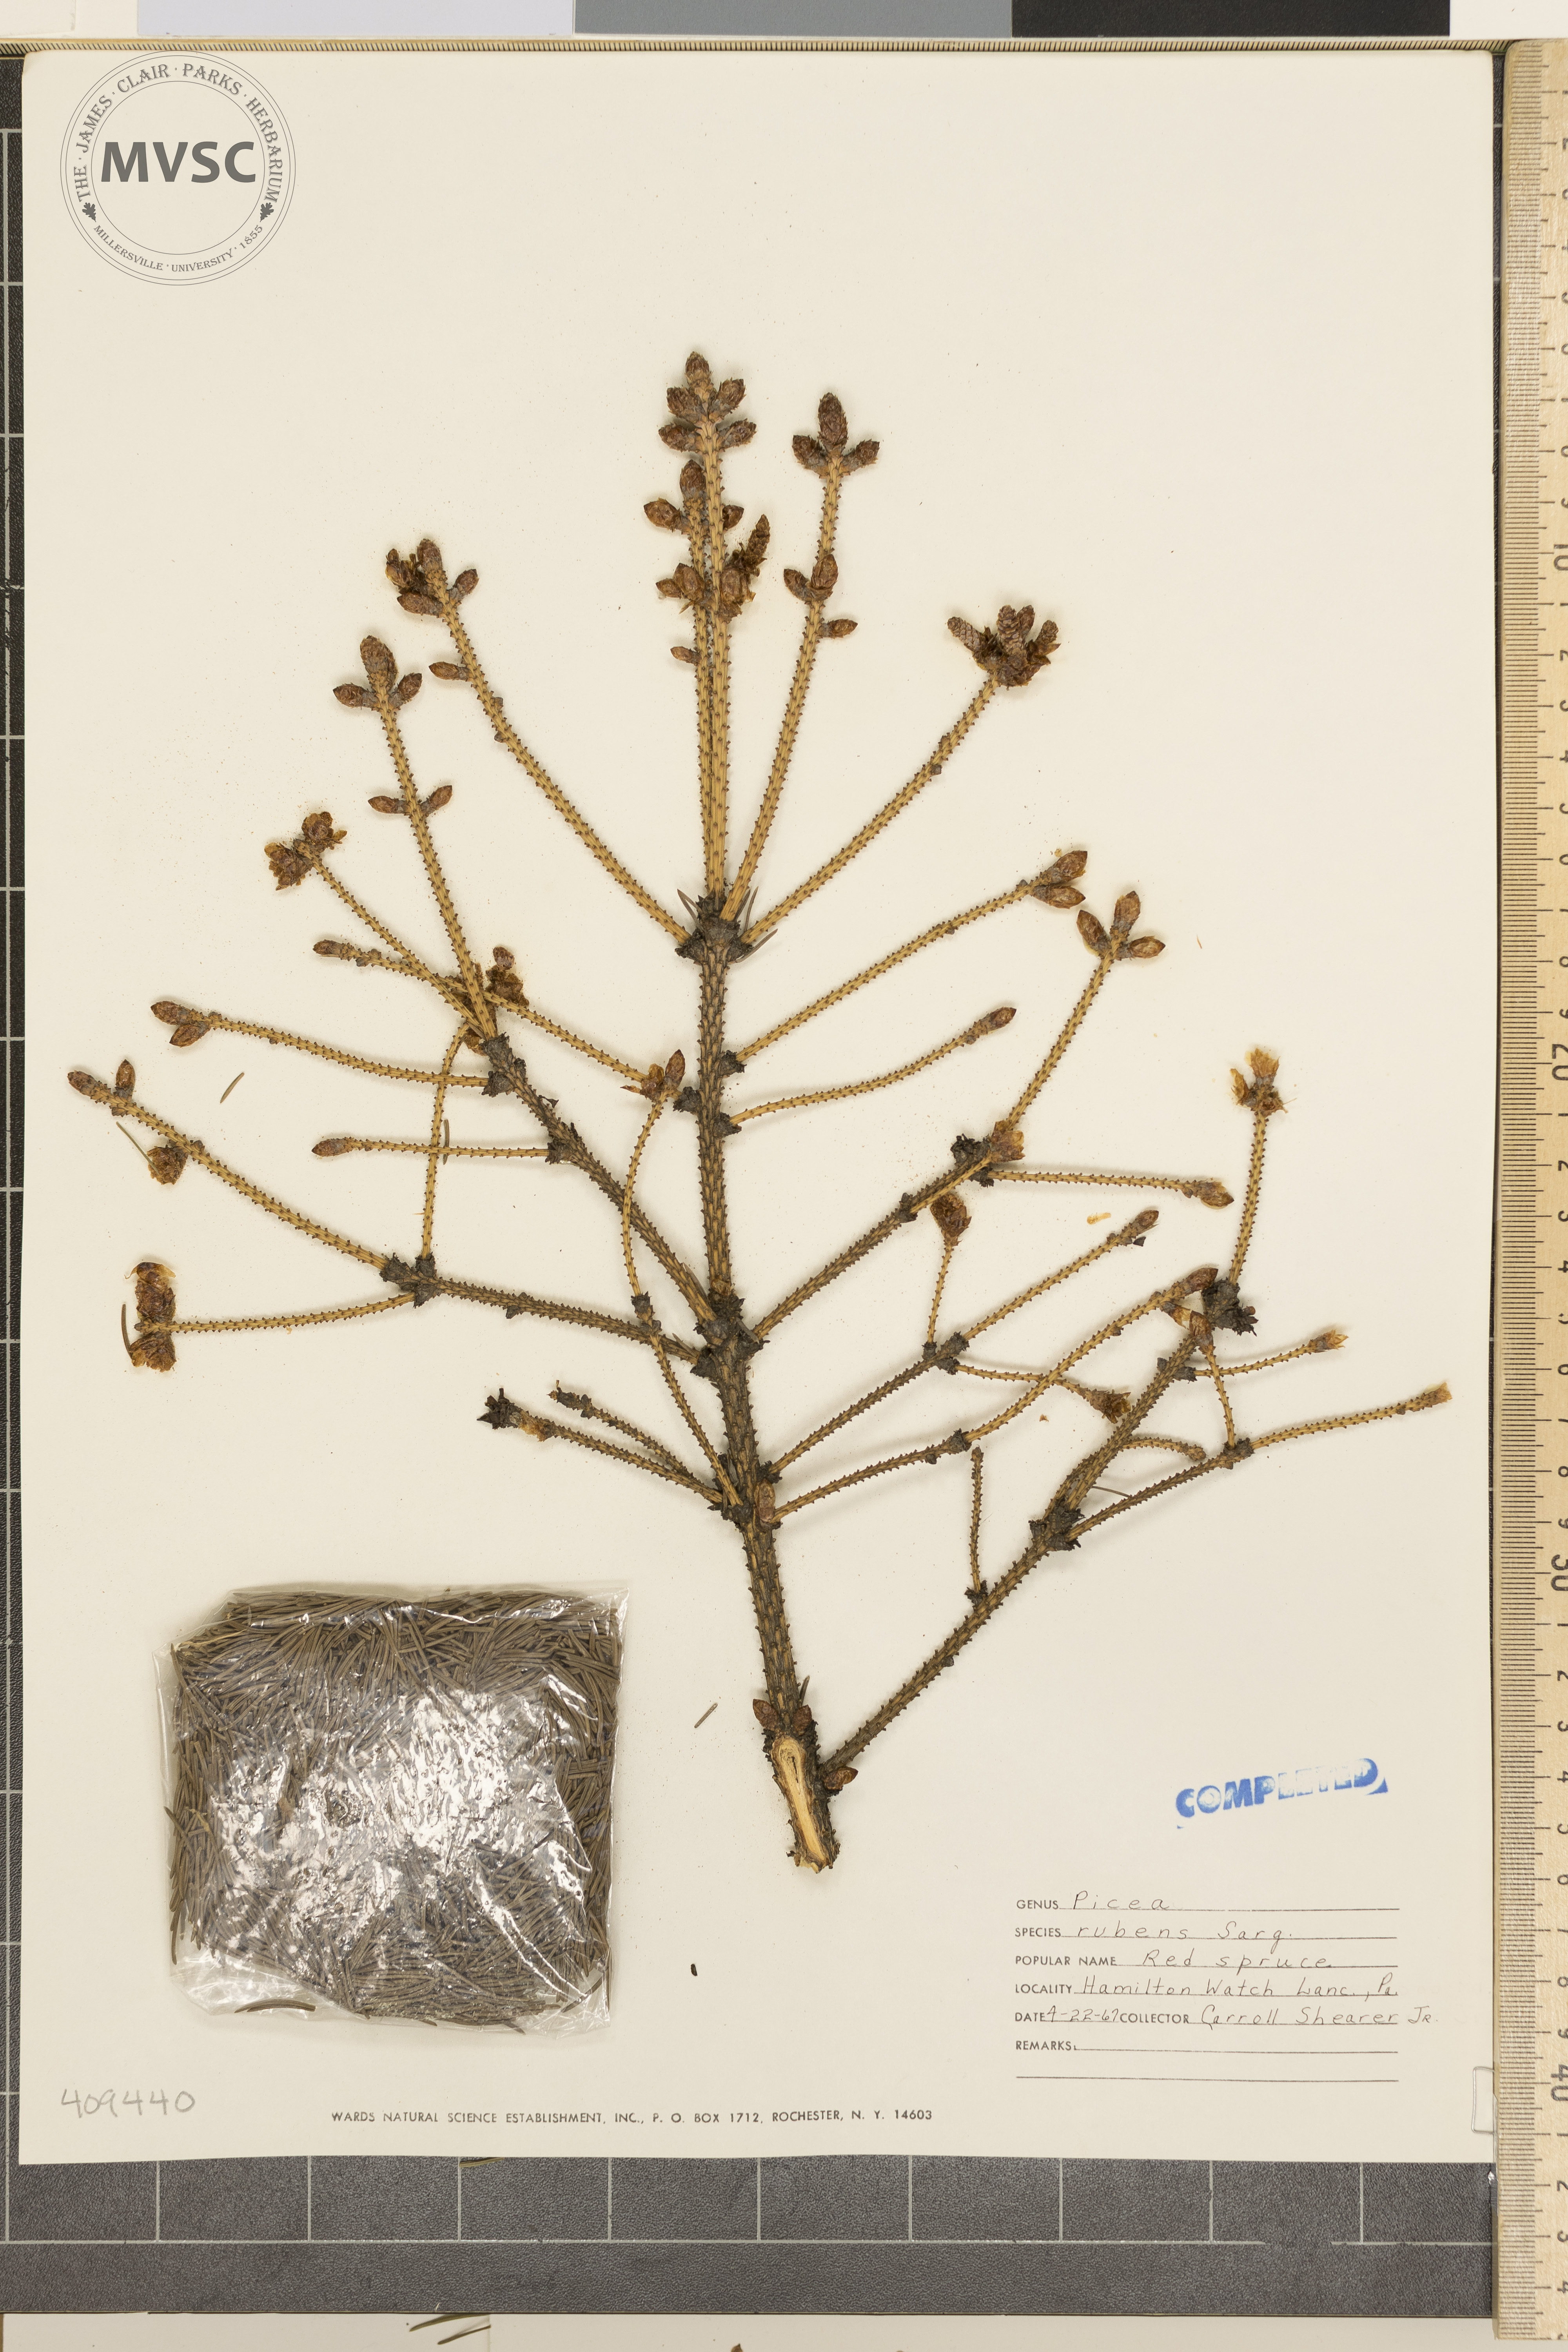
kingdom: Plantae
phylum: Tracheophyta
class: Pinopsida
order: Pinales
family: Pinaceae
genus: Picea
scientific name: Picea rubens
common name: Red spruce
